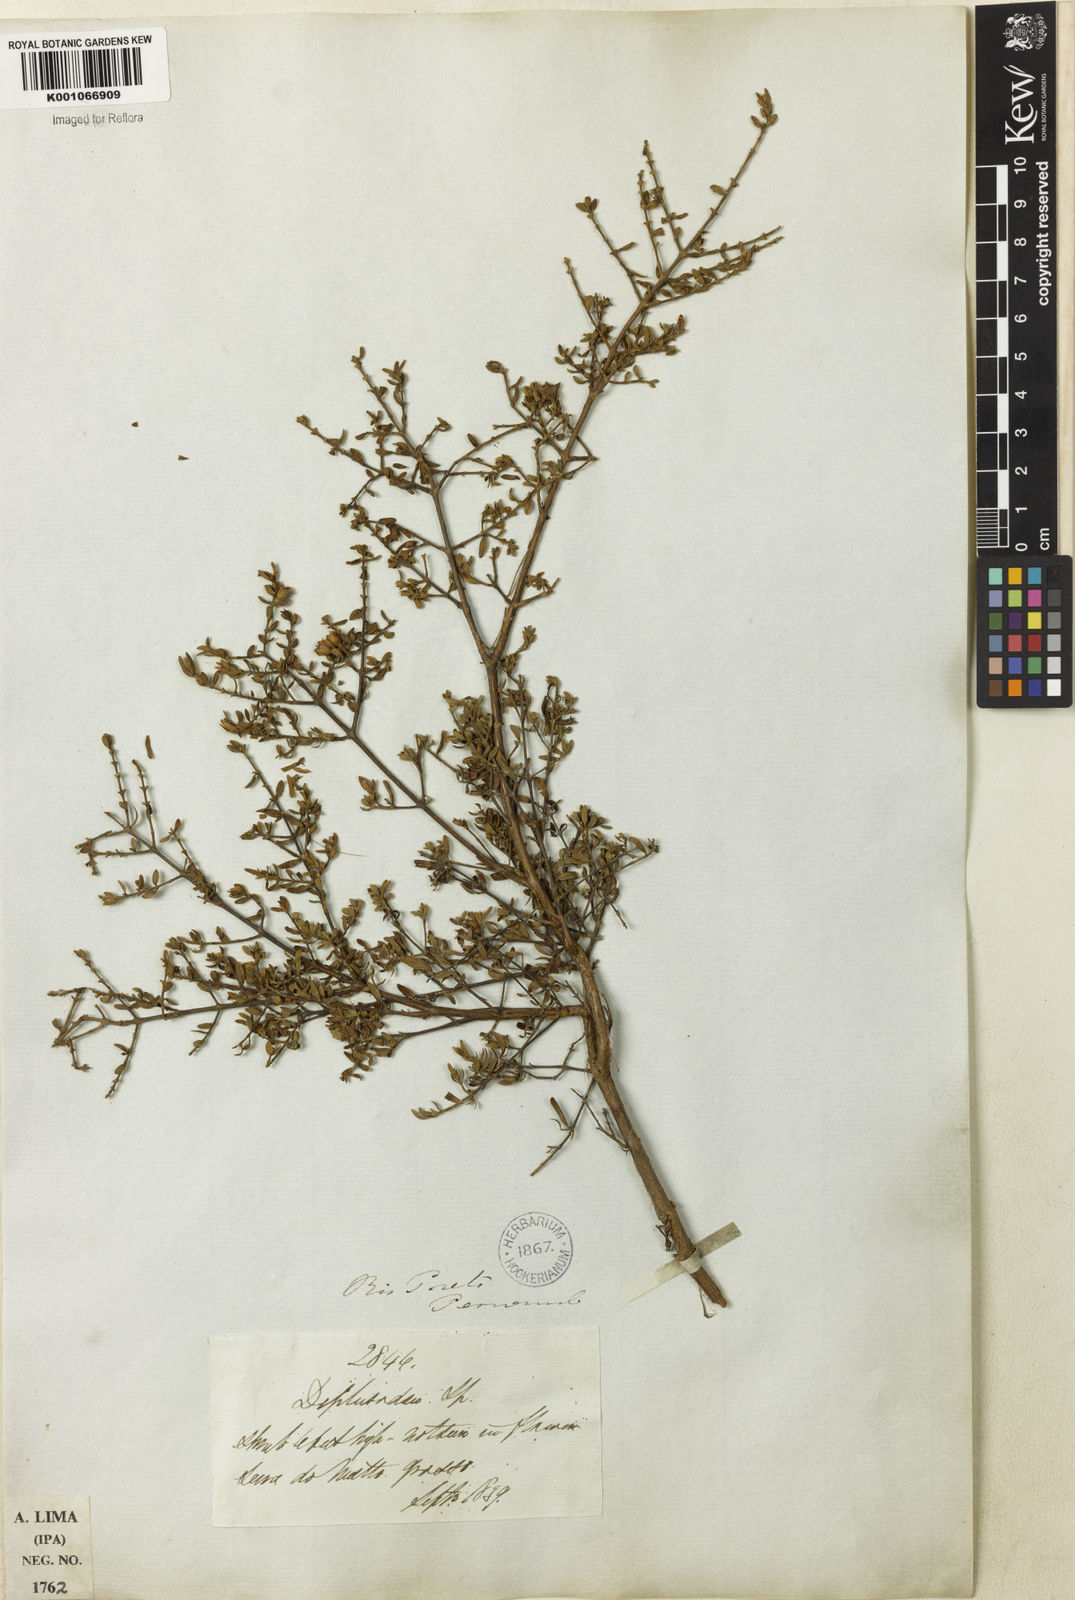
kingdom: Plantae
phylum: Tracheophyta
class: Magnoliopsida
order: Myrtales
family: Lythraceae
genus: Diplusodon
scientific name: Diplusodon thymifolius
